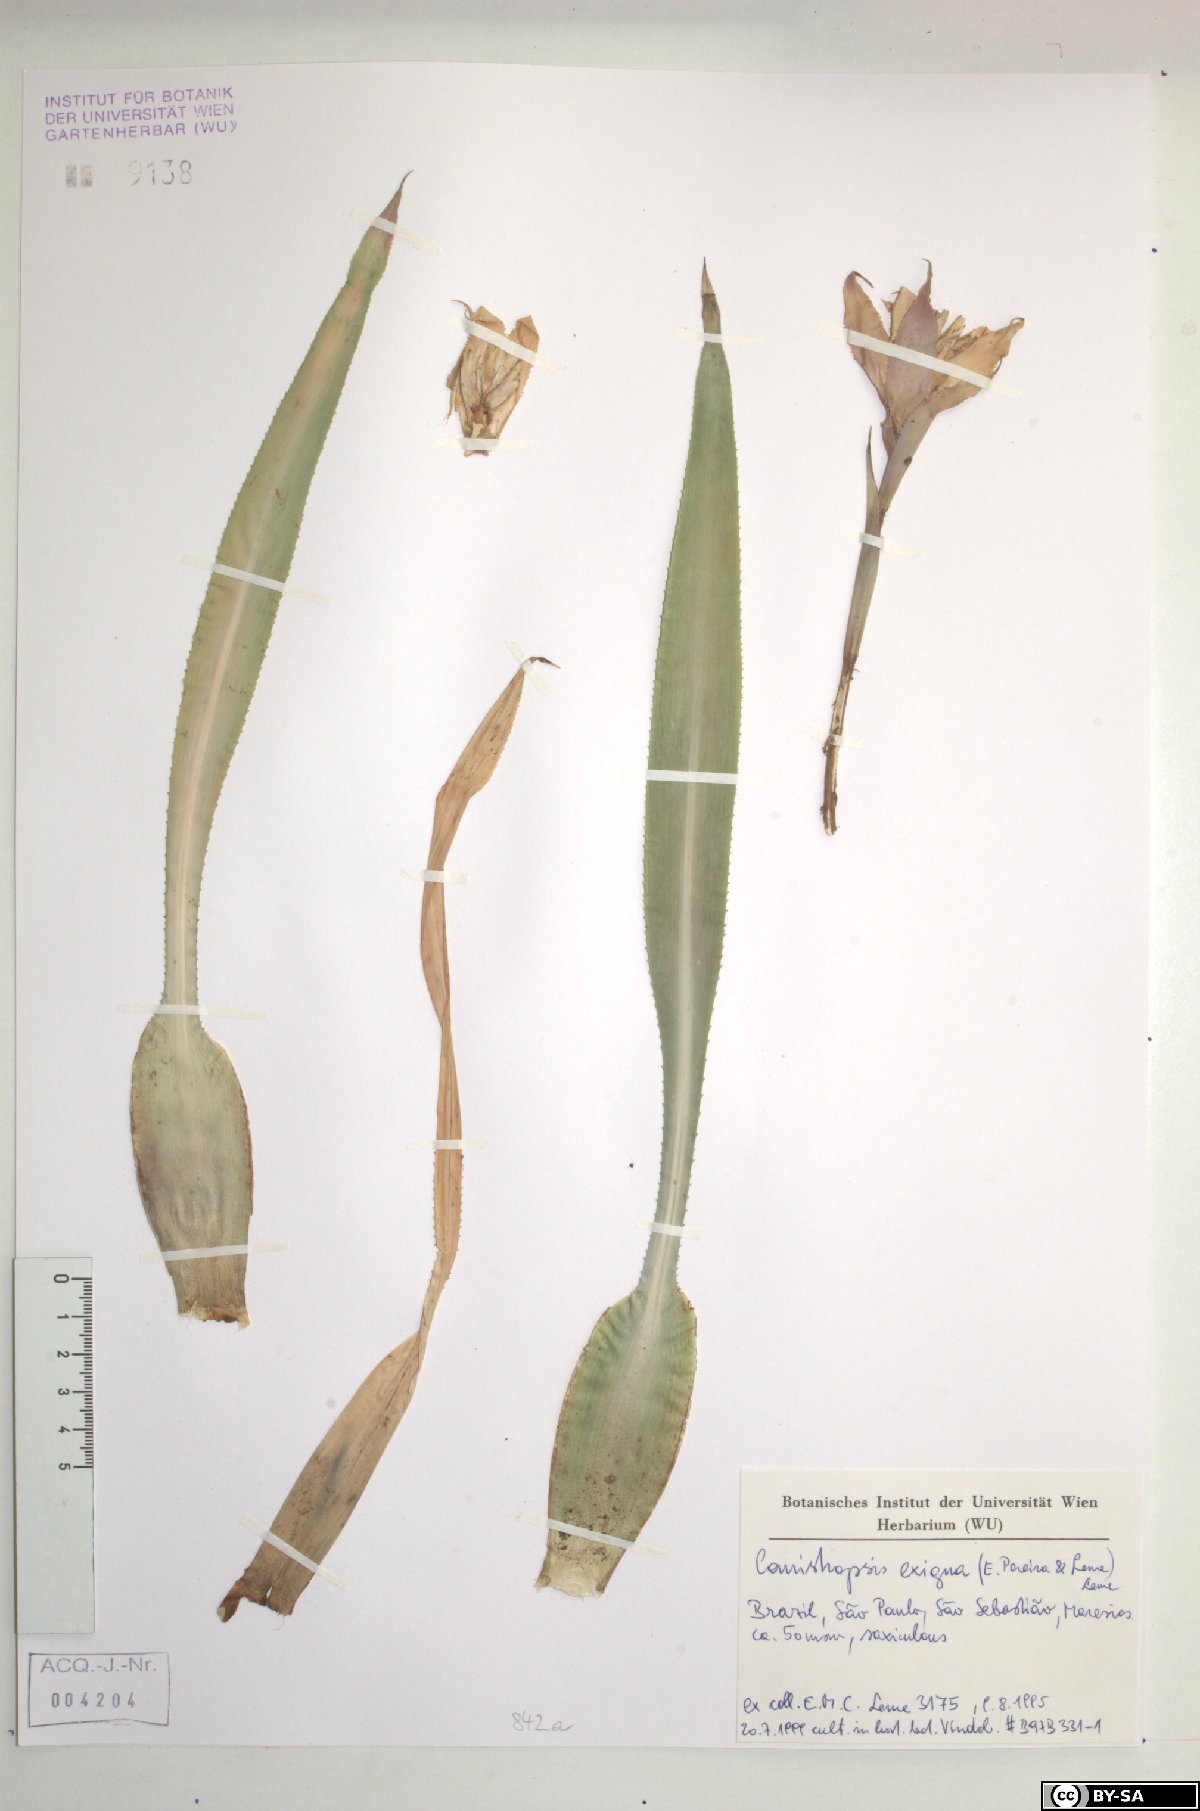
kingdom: Plantae
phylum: Tracheophyta
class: Liliopsida
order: Poales
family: Bromeliaceae
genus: Canistropsis
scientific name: Canistropsis exigua
